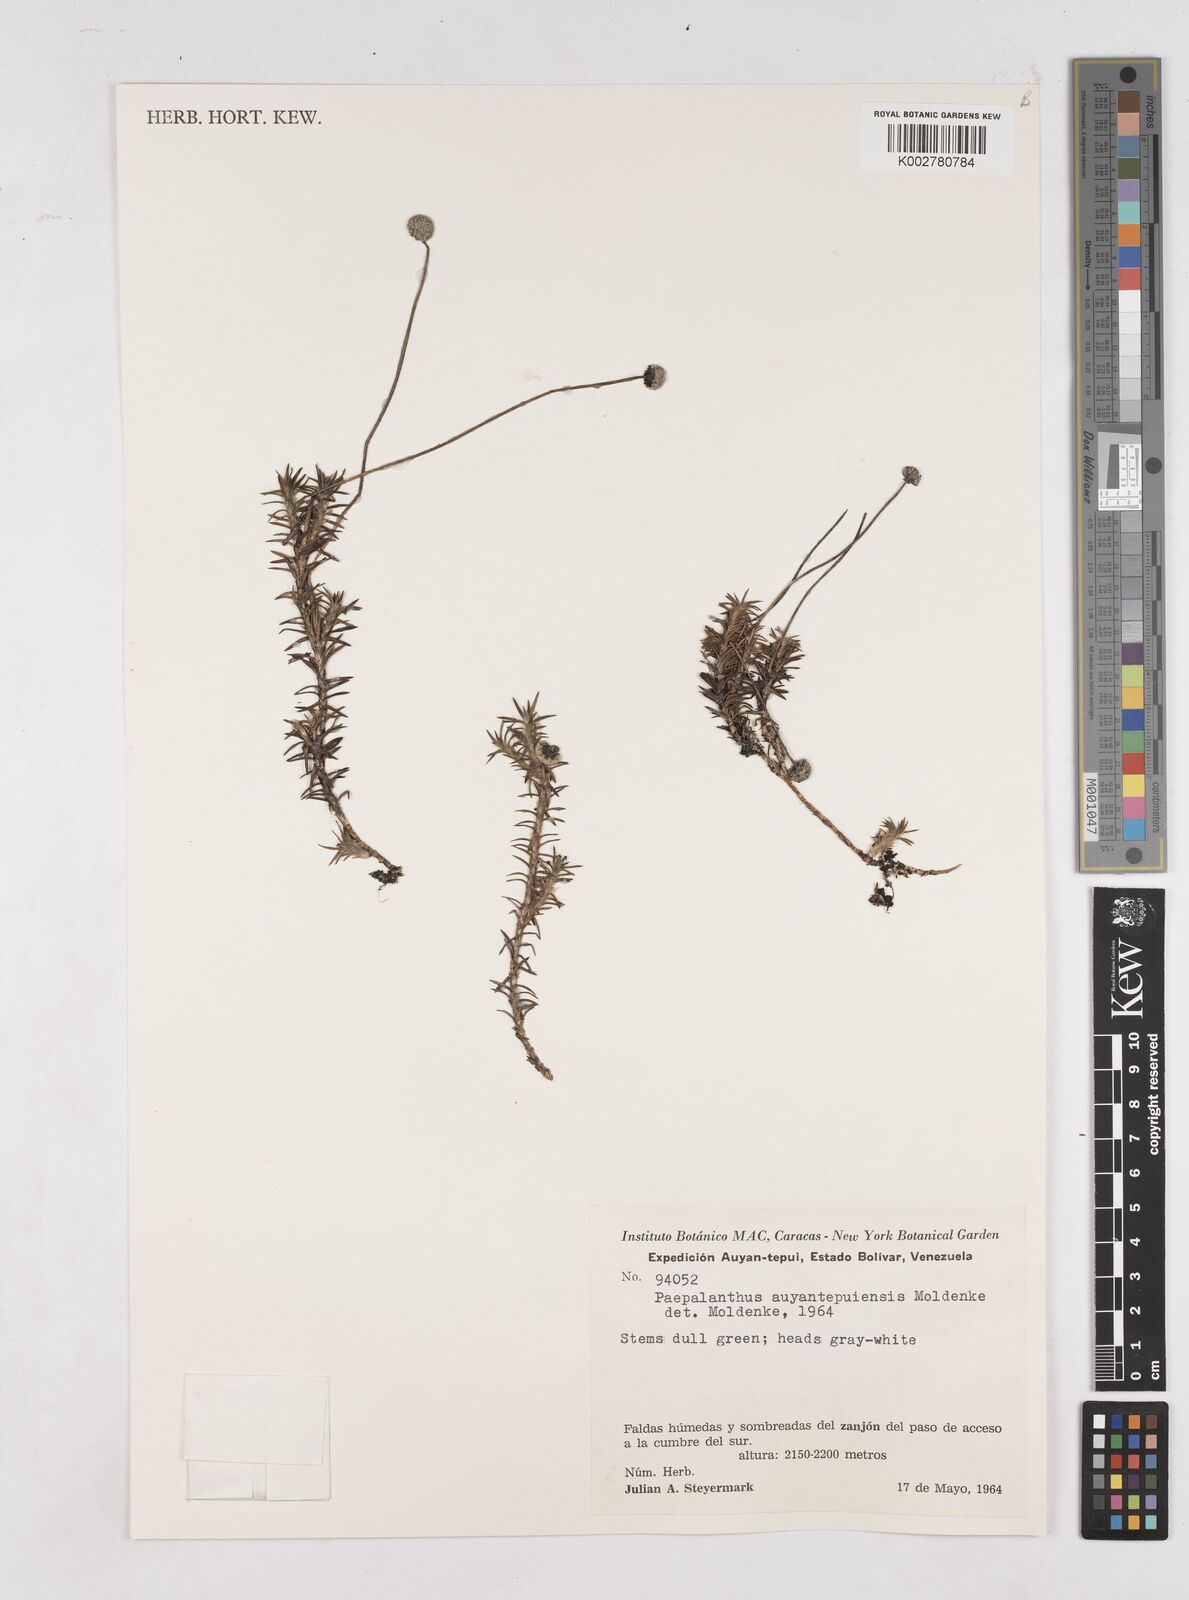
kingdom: Plantae
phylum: Tracheophyta
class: Liliopsida
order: Poales
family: Eriocaulaceae
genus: Paepalanthus
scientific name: Paepalanthus auyantepuiensis
